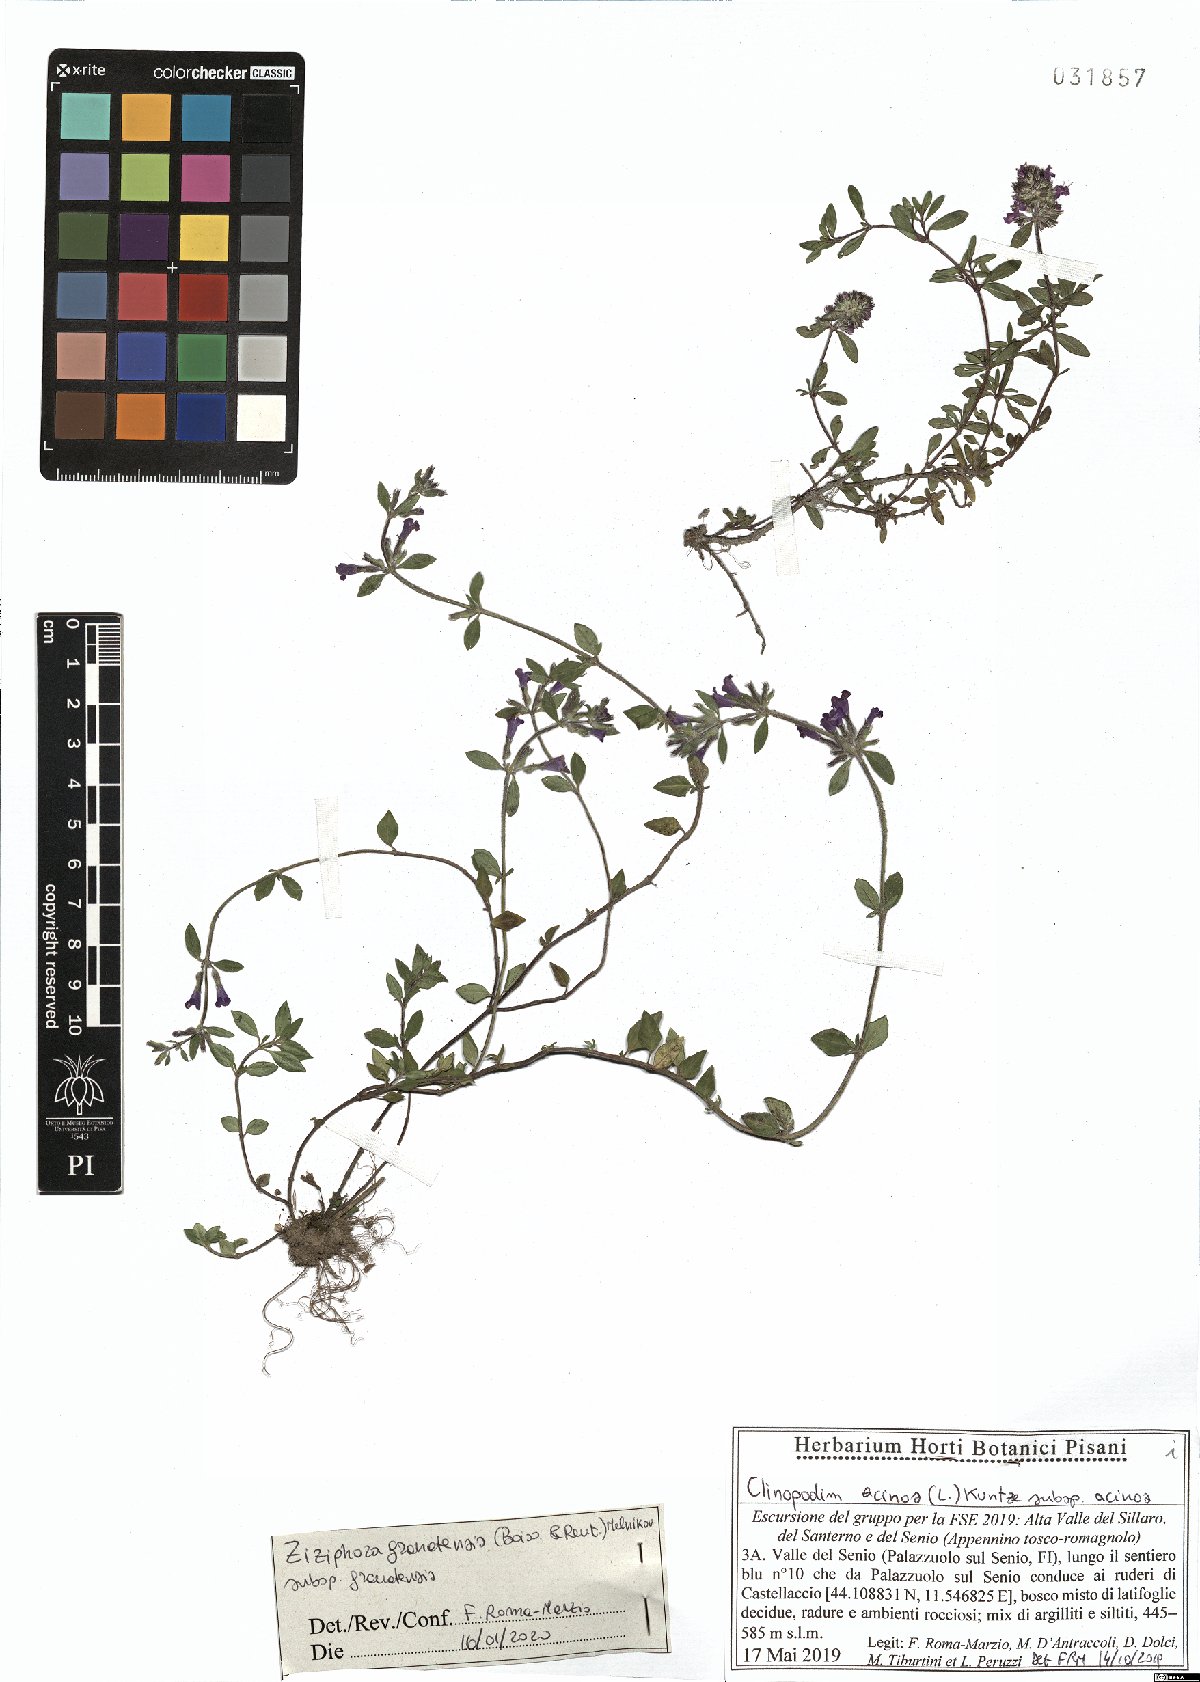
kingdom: Plantae
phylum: Tracheophyta
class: Magnoliopsida
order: Lamiales
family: Lamiaceae
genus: Clinopodium
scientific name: Clinopodium alpinum
